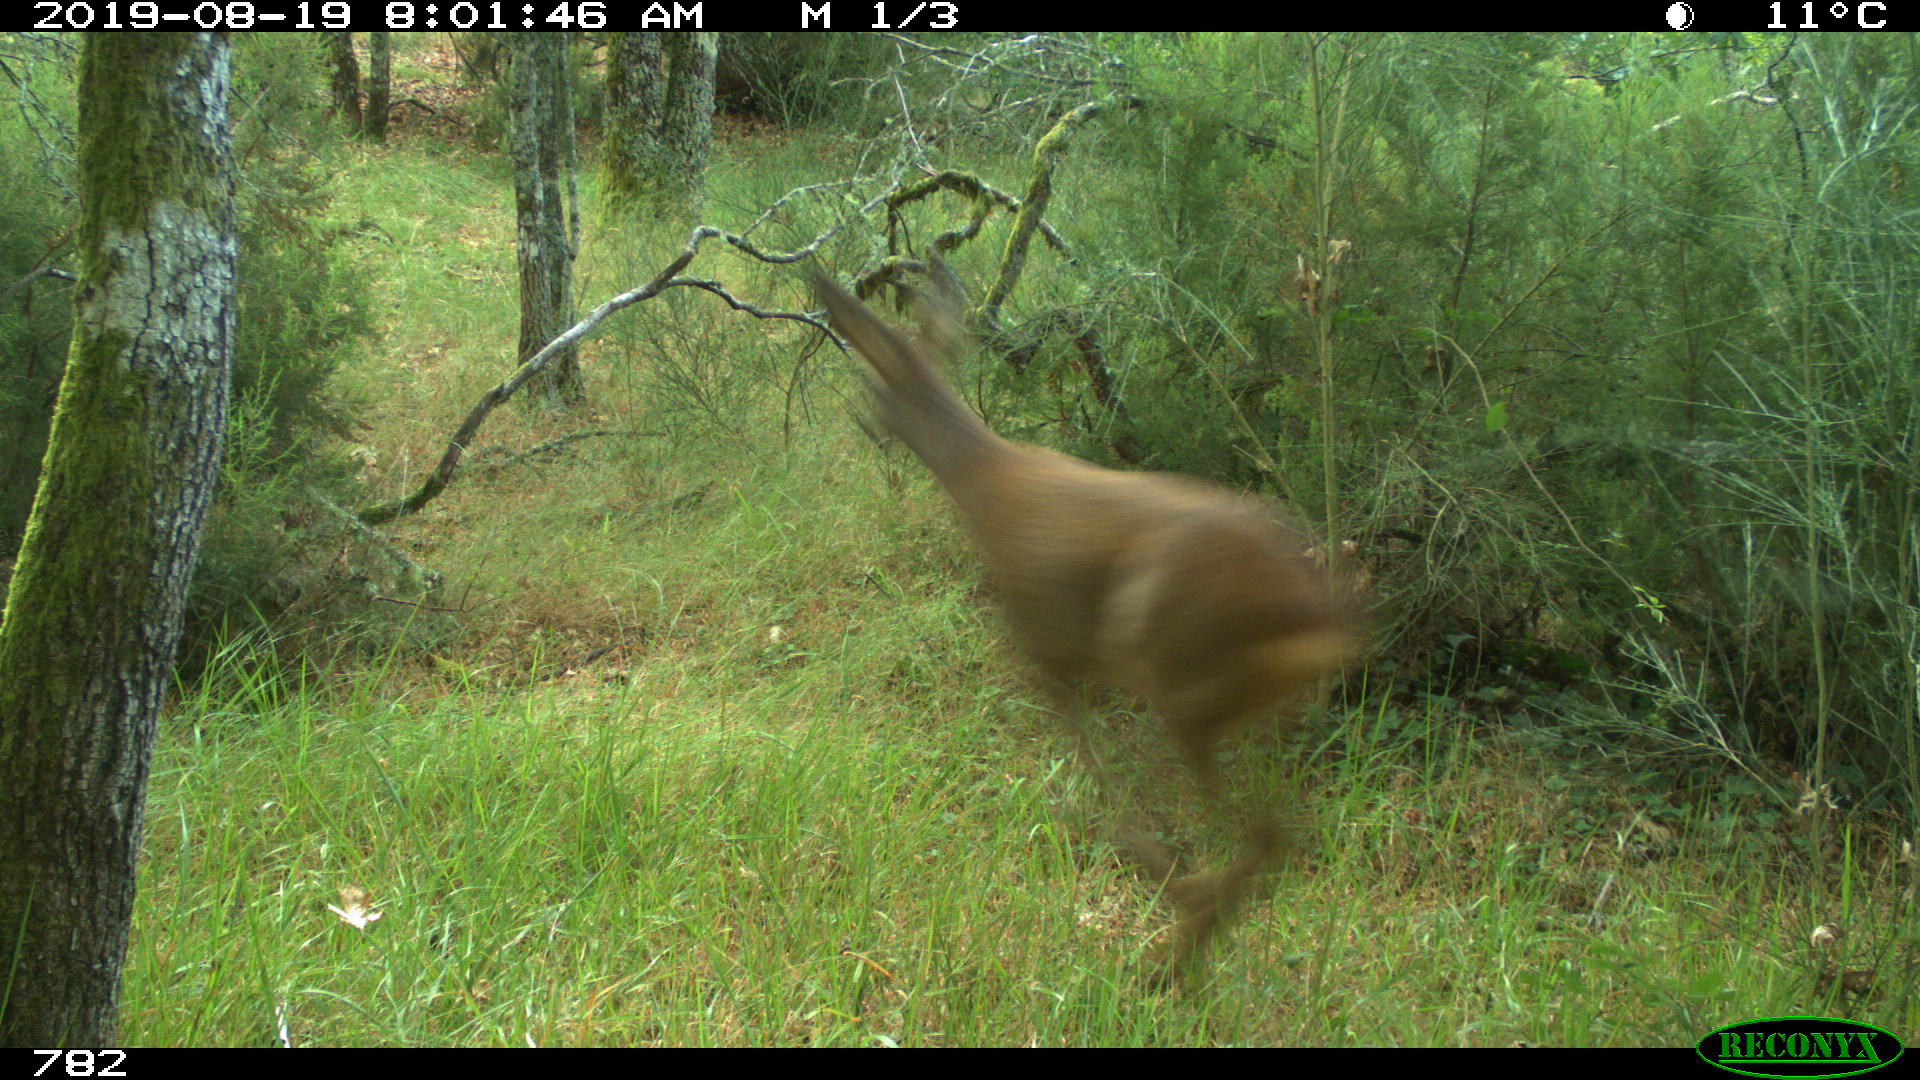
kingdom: Animalia
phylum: Chordata
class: Mammalia
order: Artiodactyla
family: Cervidae
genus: Capreolus
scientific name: Capreolus capreolus
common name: Western roe deer
